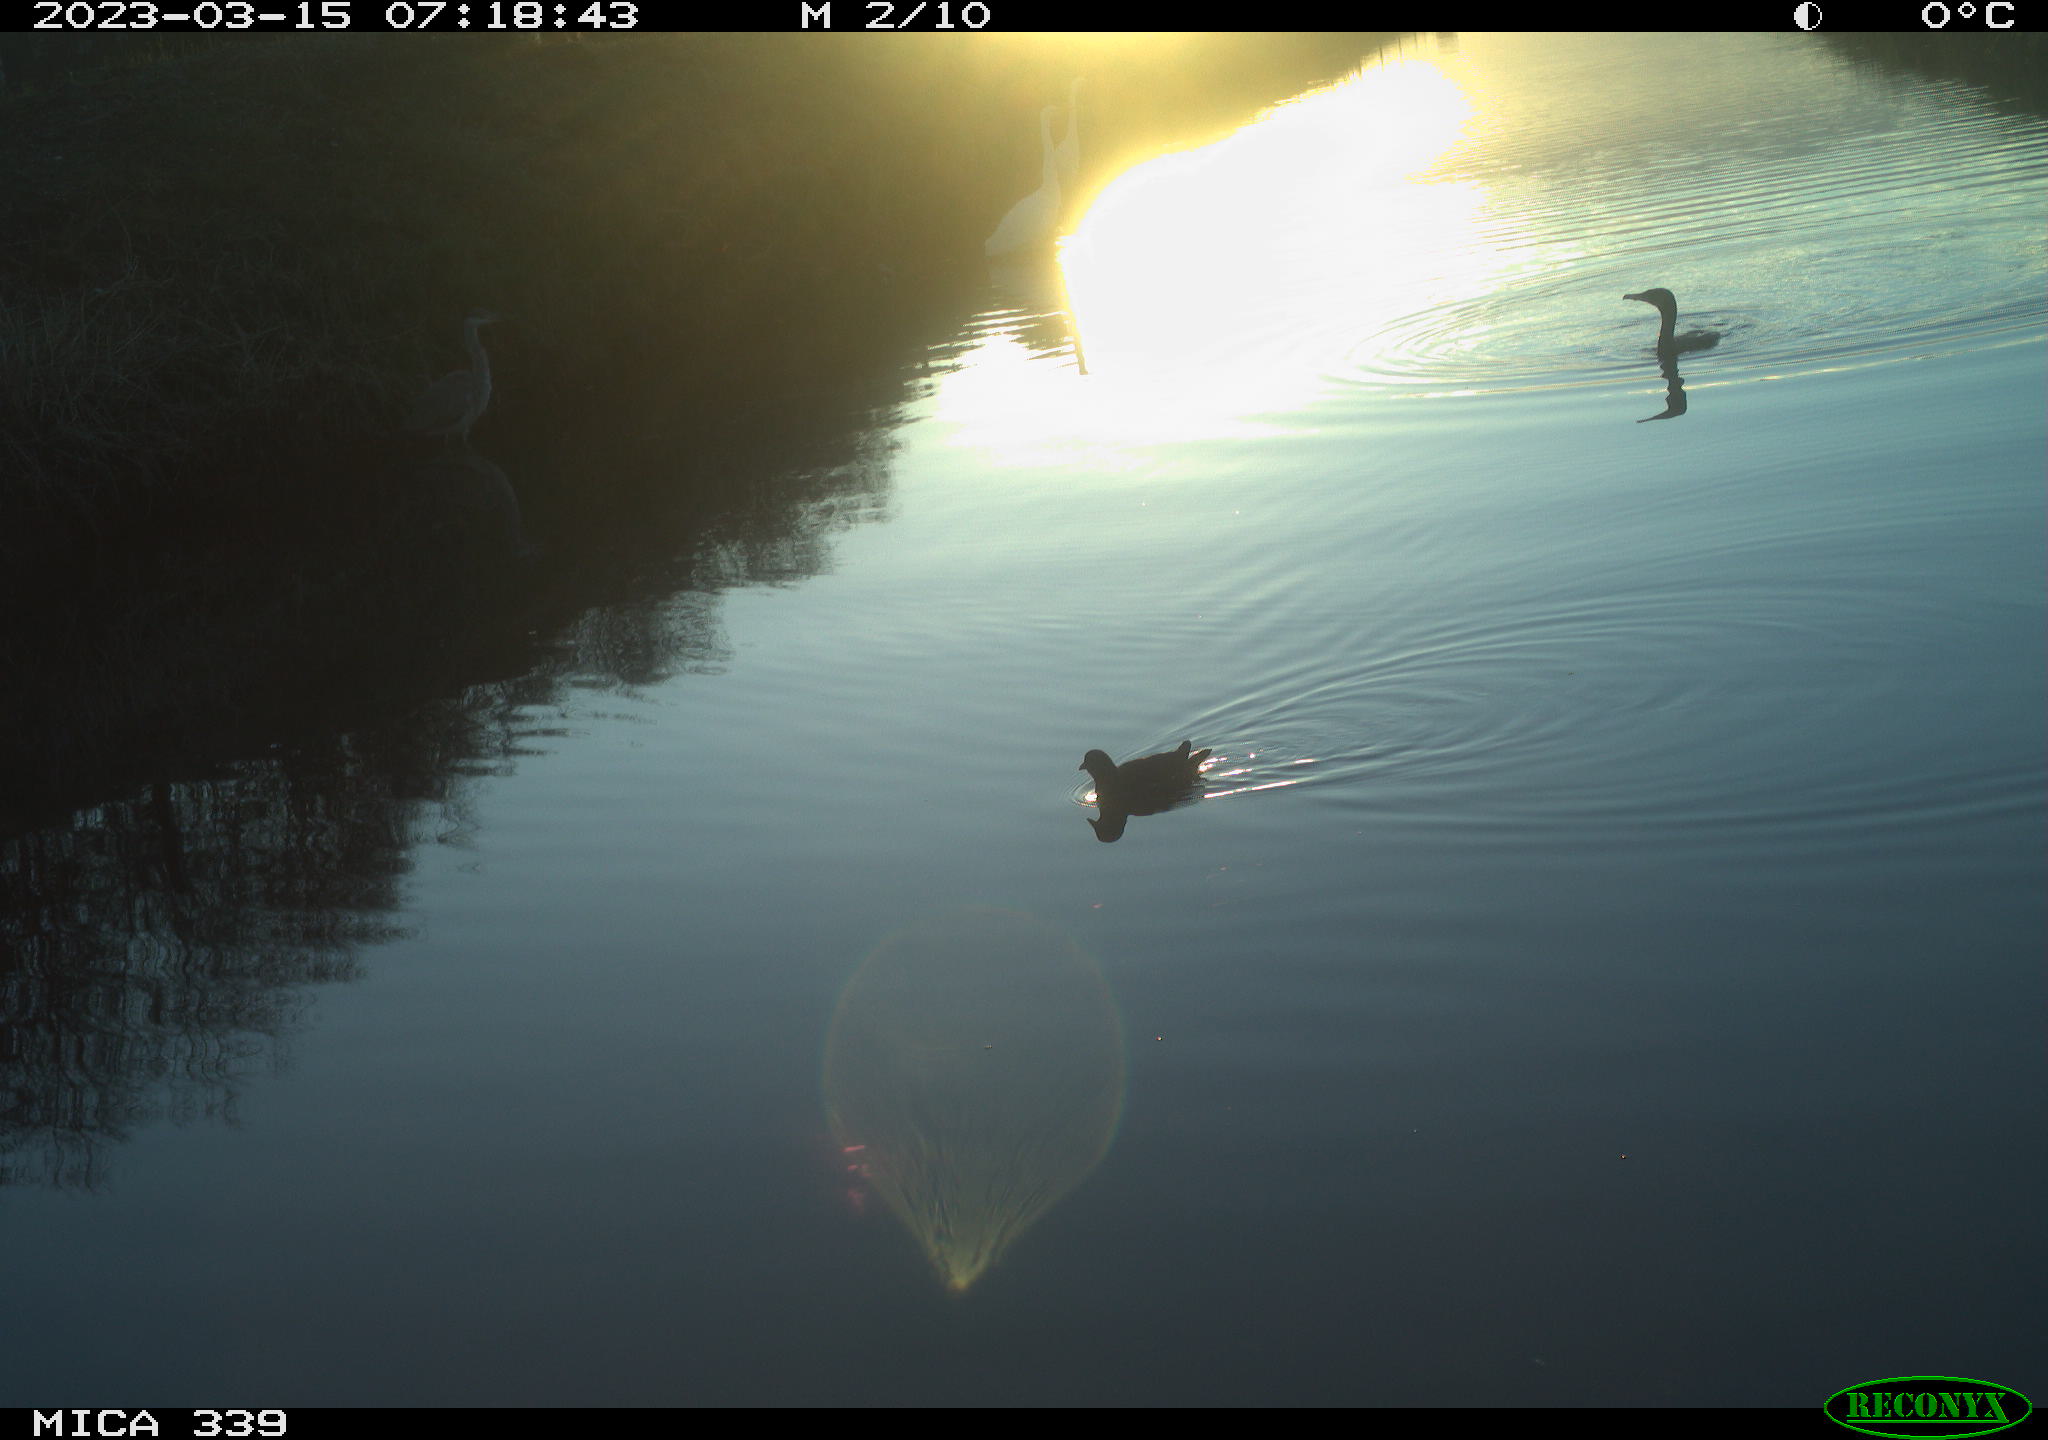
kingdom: Animalia
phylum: Chordata
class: Aves
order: Suliformes
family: Phalacrocoracidae
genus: Phalacrocorax
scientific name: Phalacrocorax carbo
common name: Great cormorant
